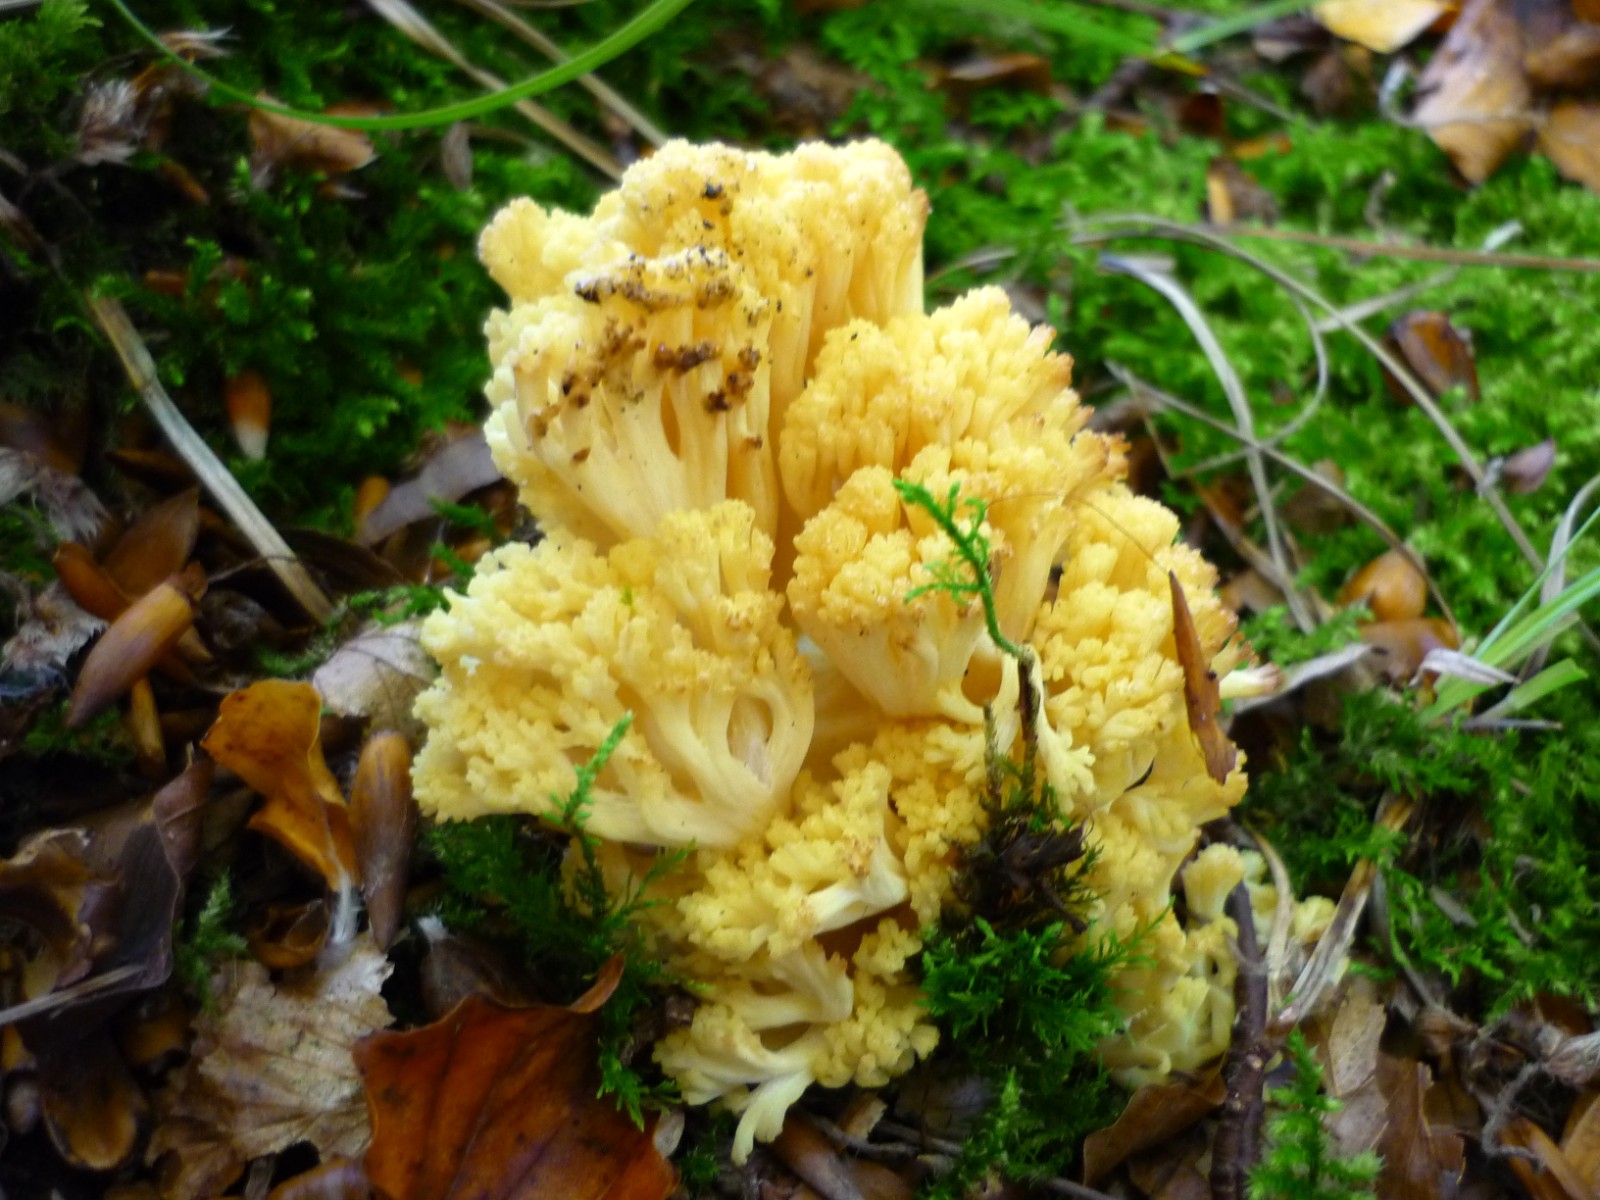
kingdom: Fungi
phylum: Basidiomycota
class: Agaricomycetes
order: Gomphales
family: Gomphaceae
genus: Ramaria
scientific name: Ramaria sanguinea
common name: blodplettet koralsvamp
